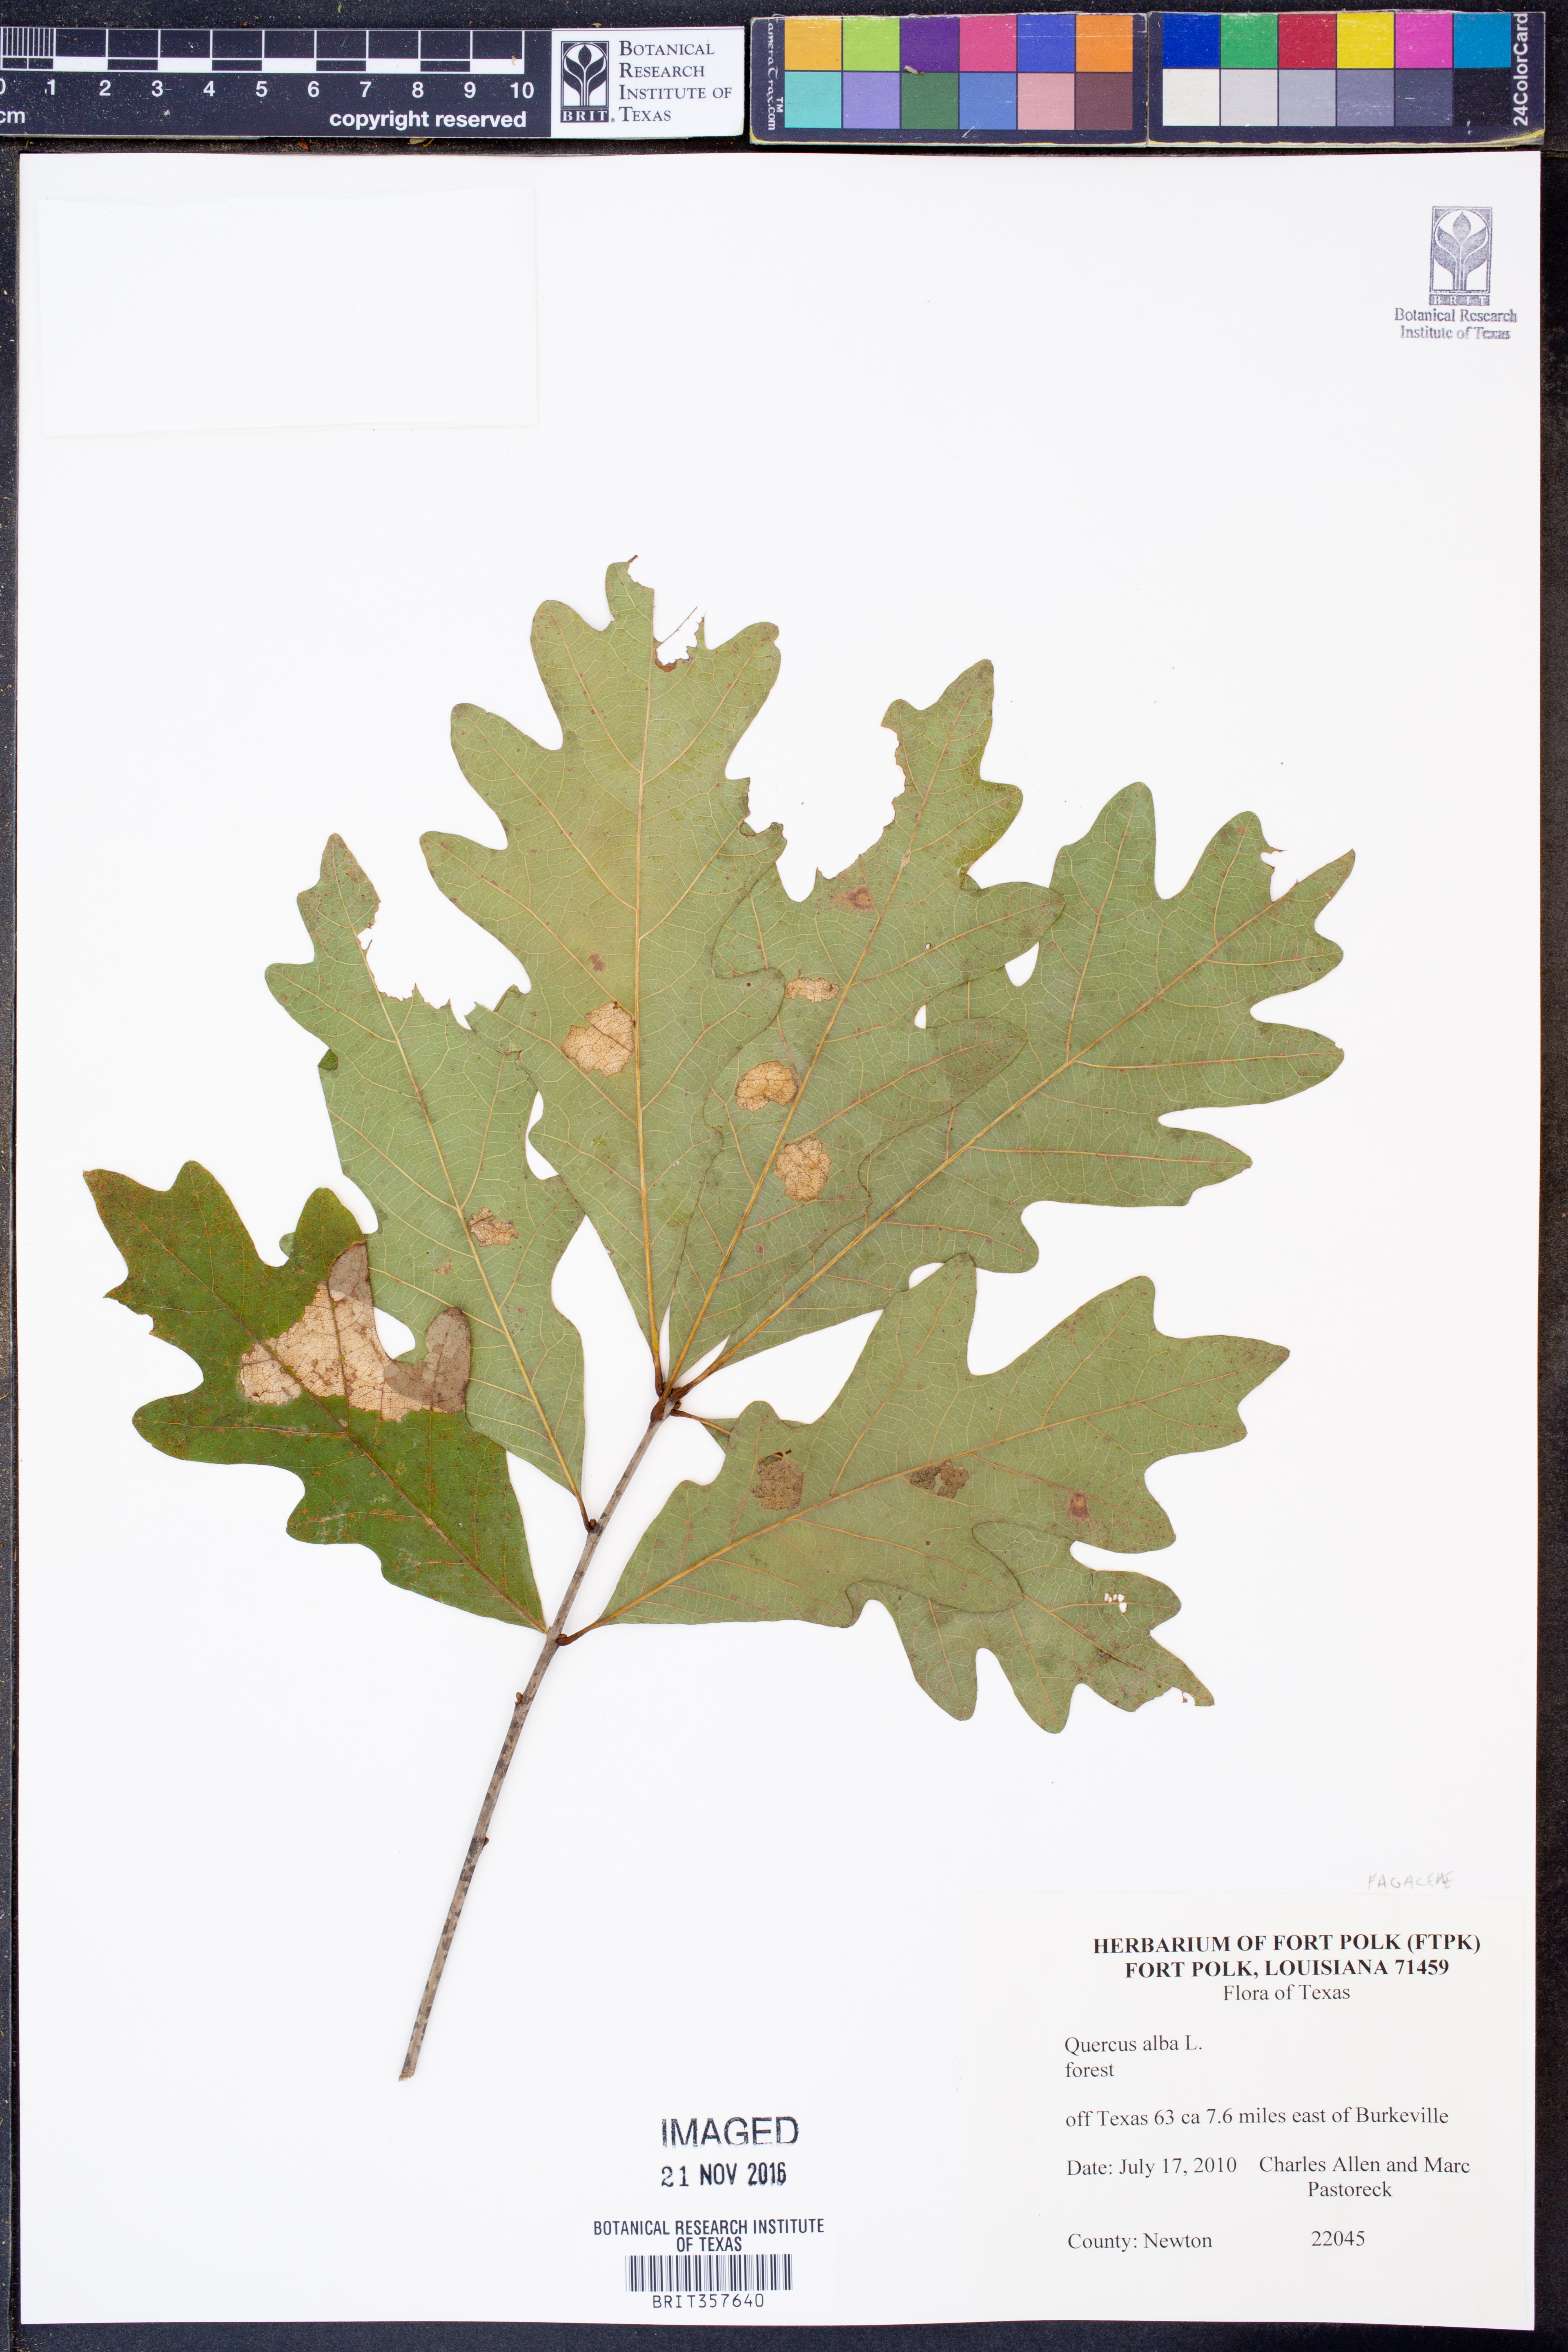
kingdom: Plantae
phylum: Tracheophyta
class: Magnoliopsida
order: Fagales
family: Fagaceae
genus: Quercus
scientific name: Quercus alba
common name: White oak
